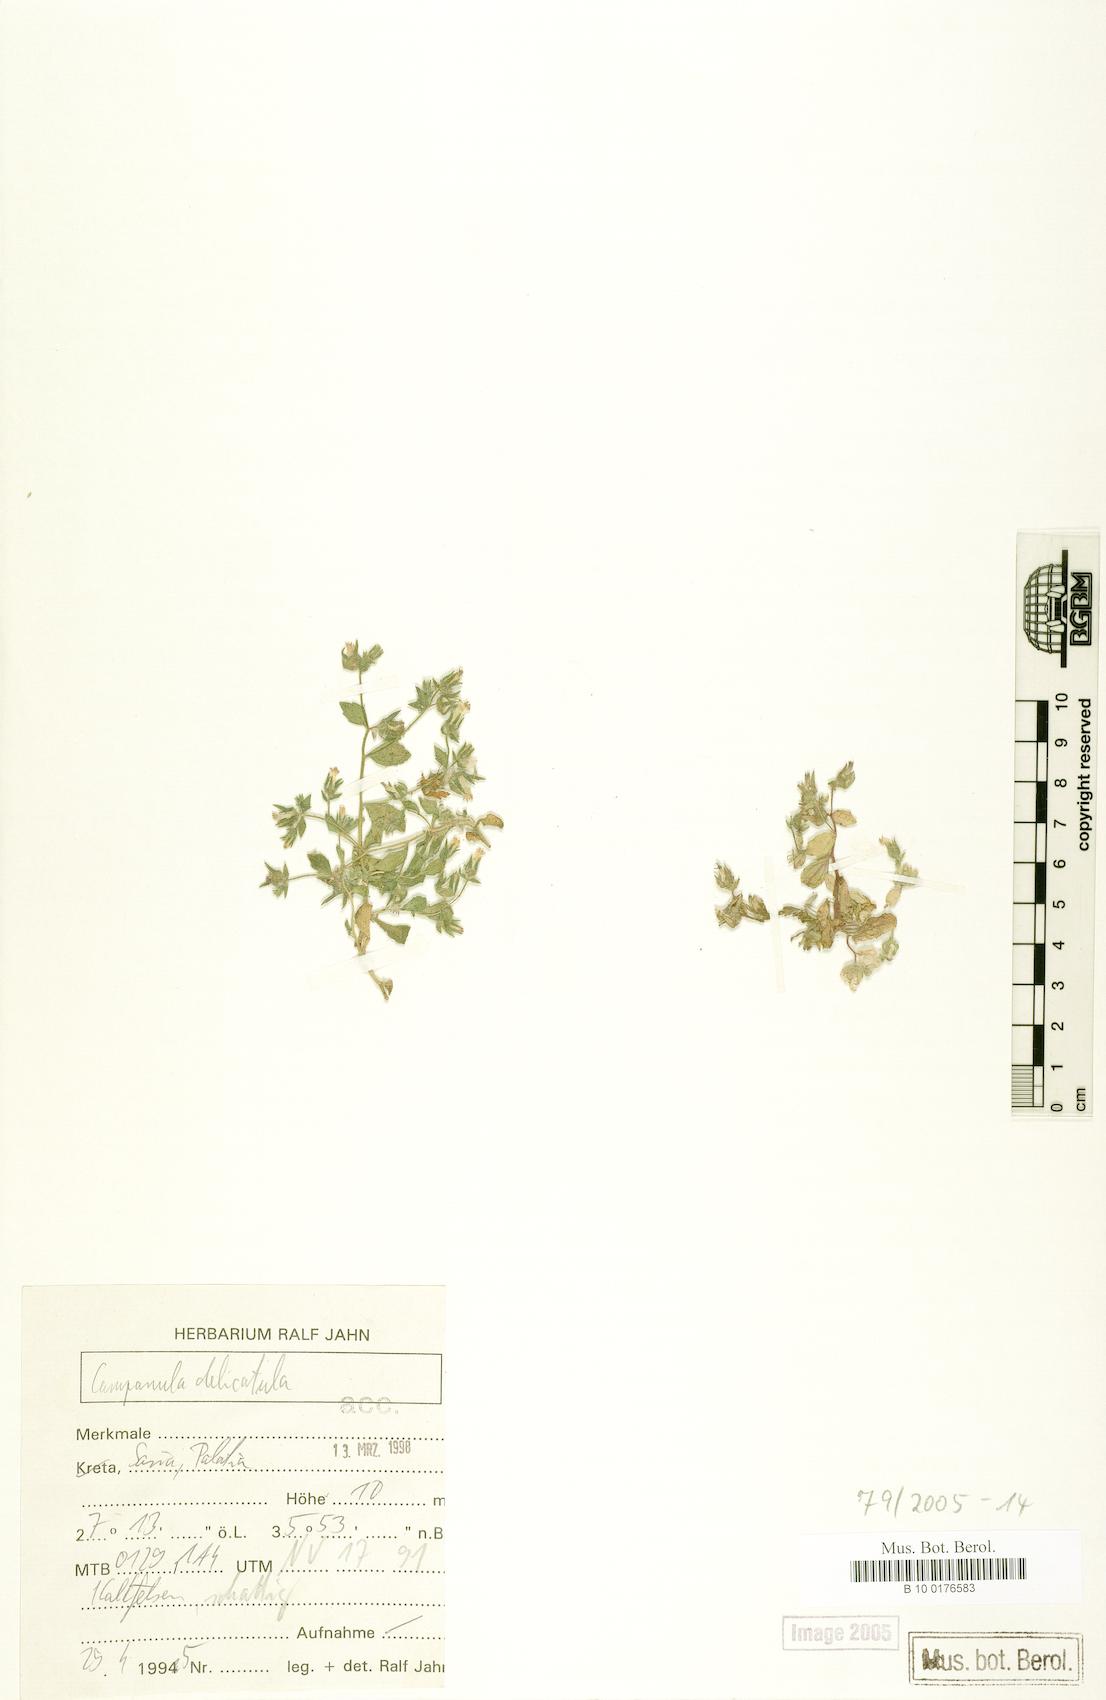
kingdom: Plantae
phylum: Tracheophyta
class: Magnoliopsida
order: Asterales
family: Campanulaceae
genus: Campanula
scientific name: Campanula delicatula
